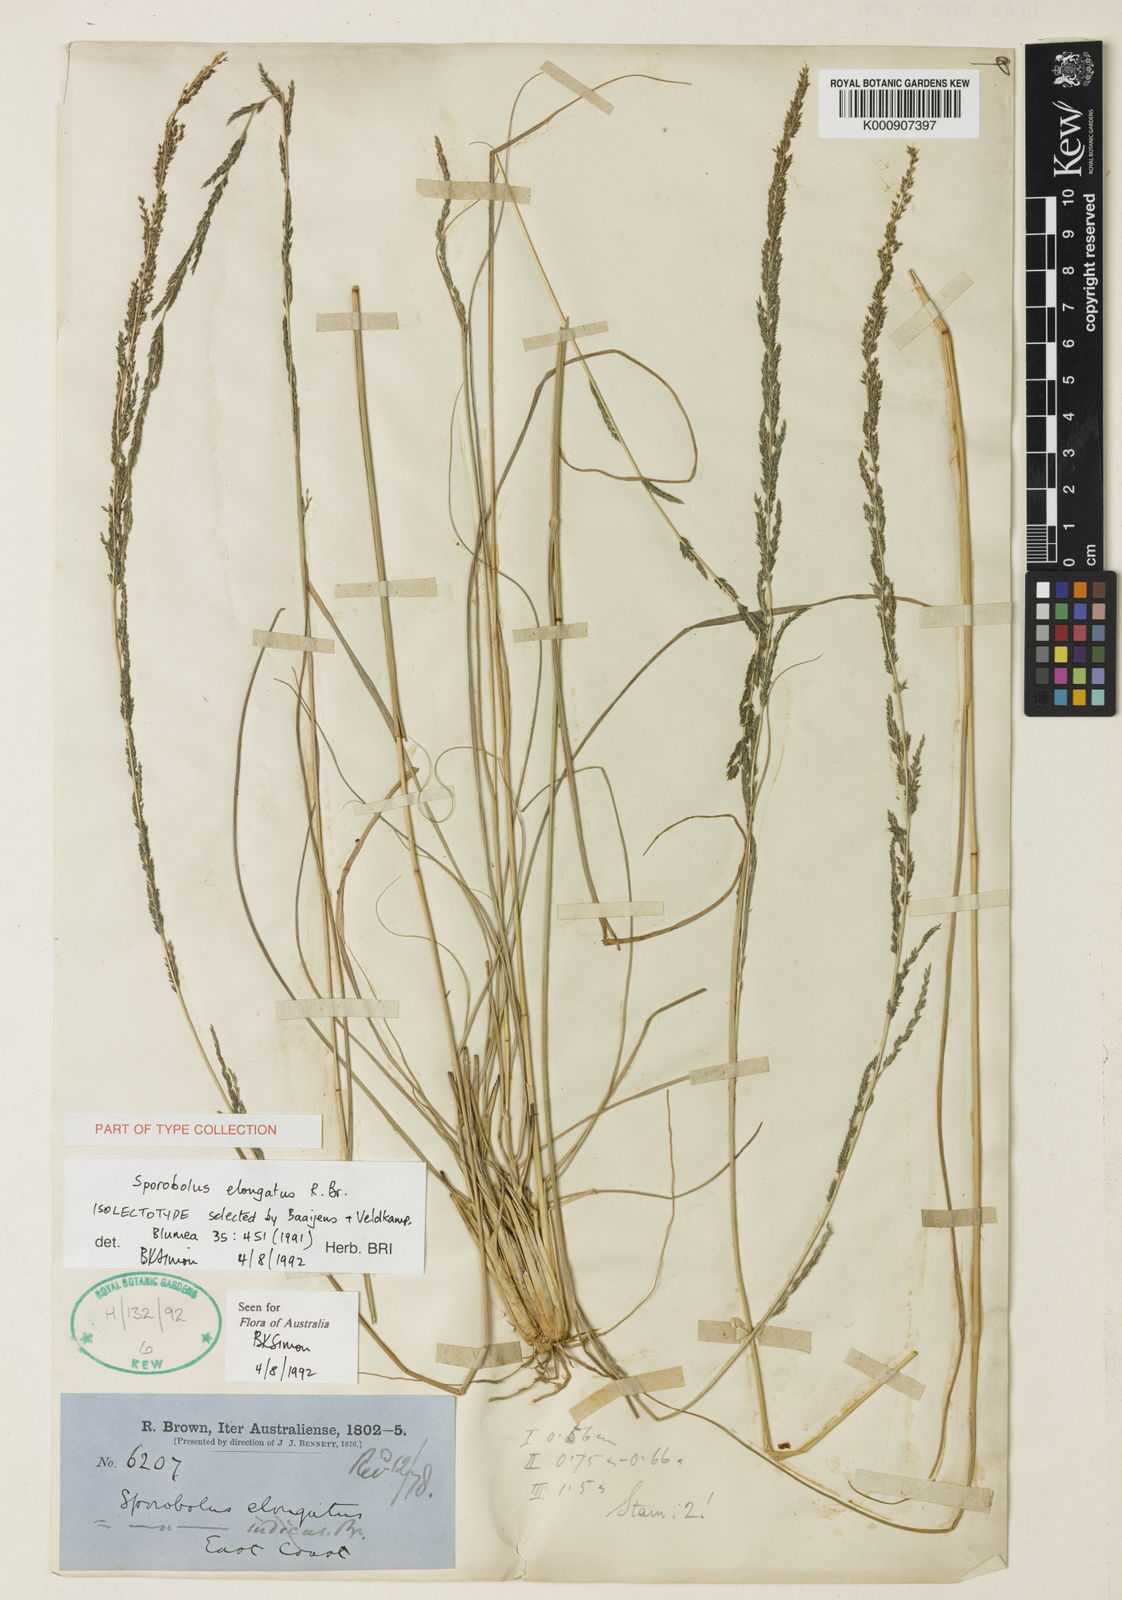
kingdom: Plantae
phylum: Tracheophyta
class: Liliopsida
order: Poales
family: Poaceae
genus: Sporobolus
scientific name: Sporobolus elongatus
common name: Rat tail grass
